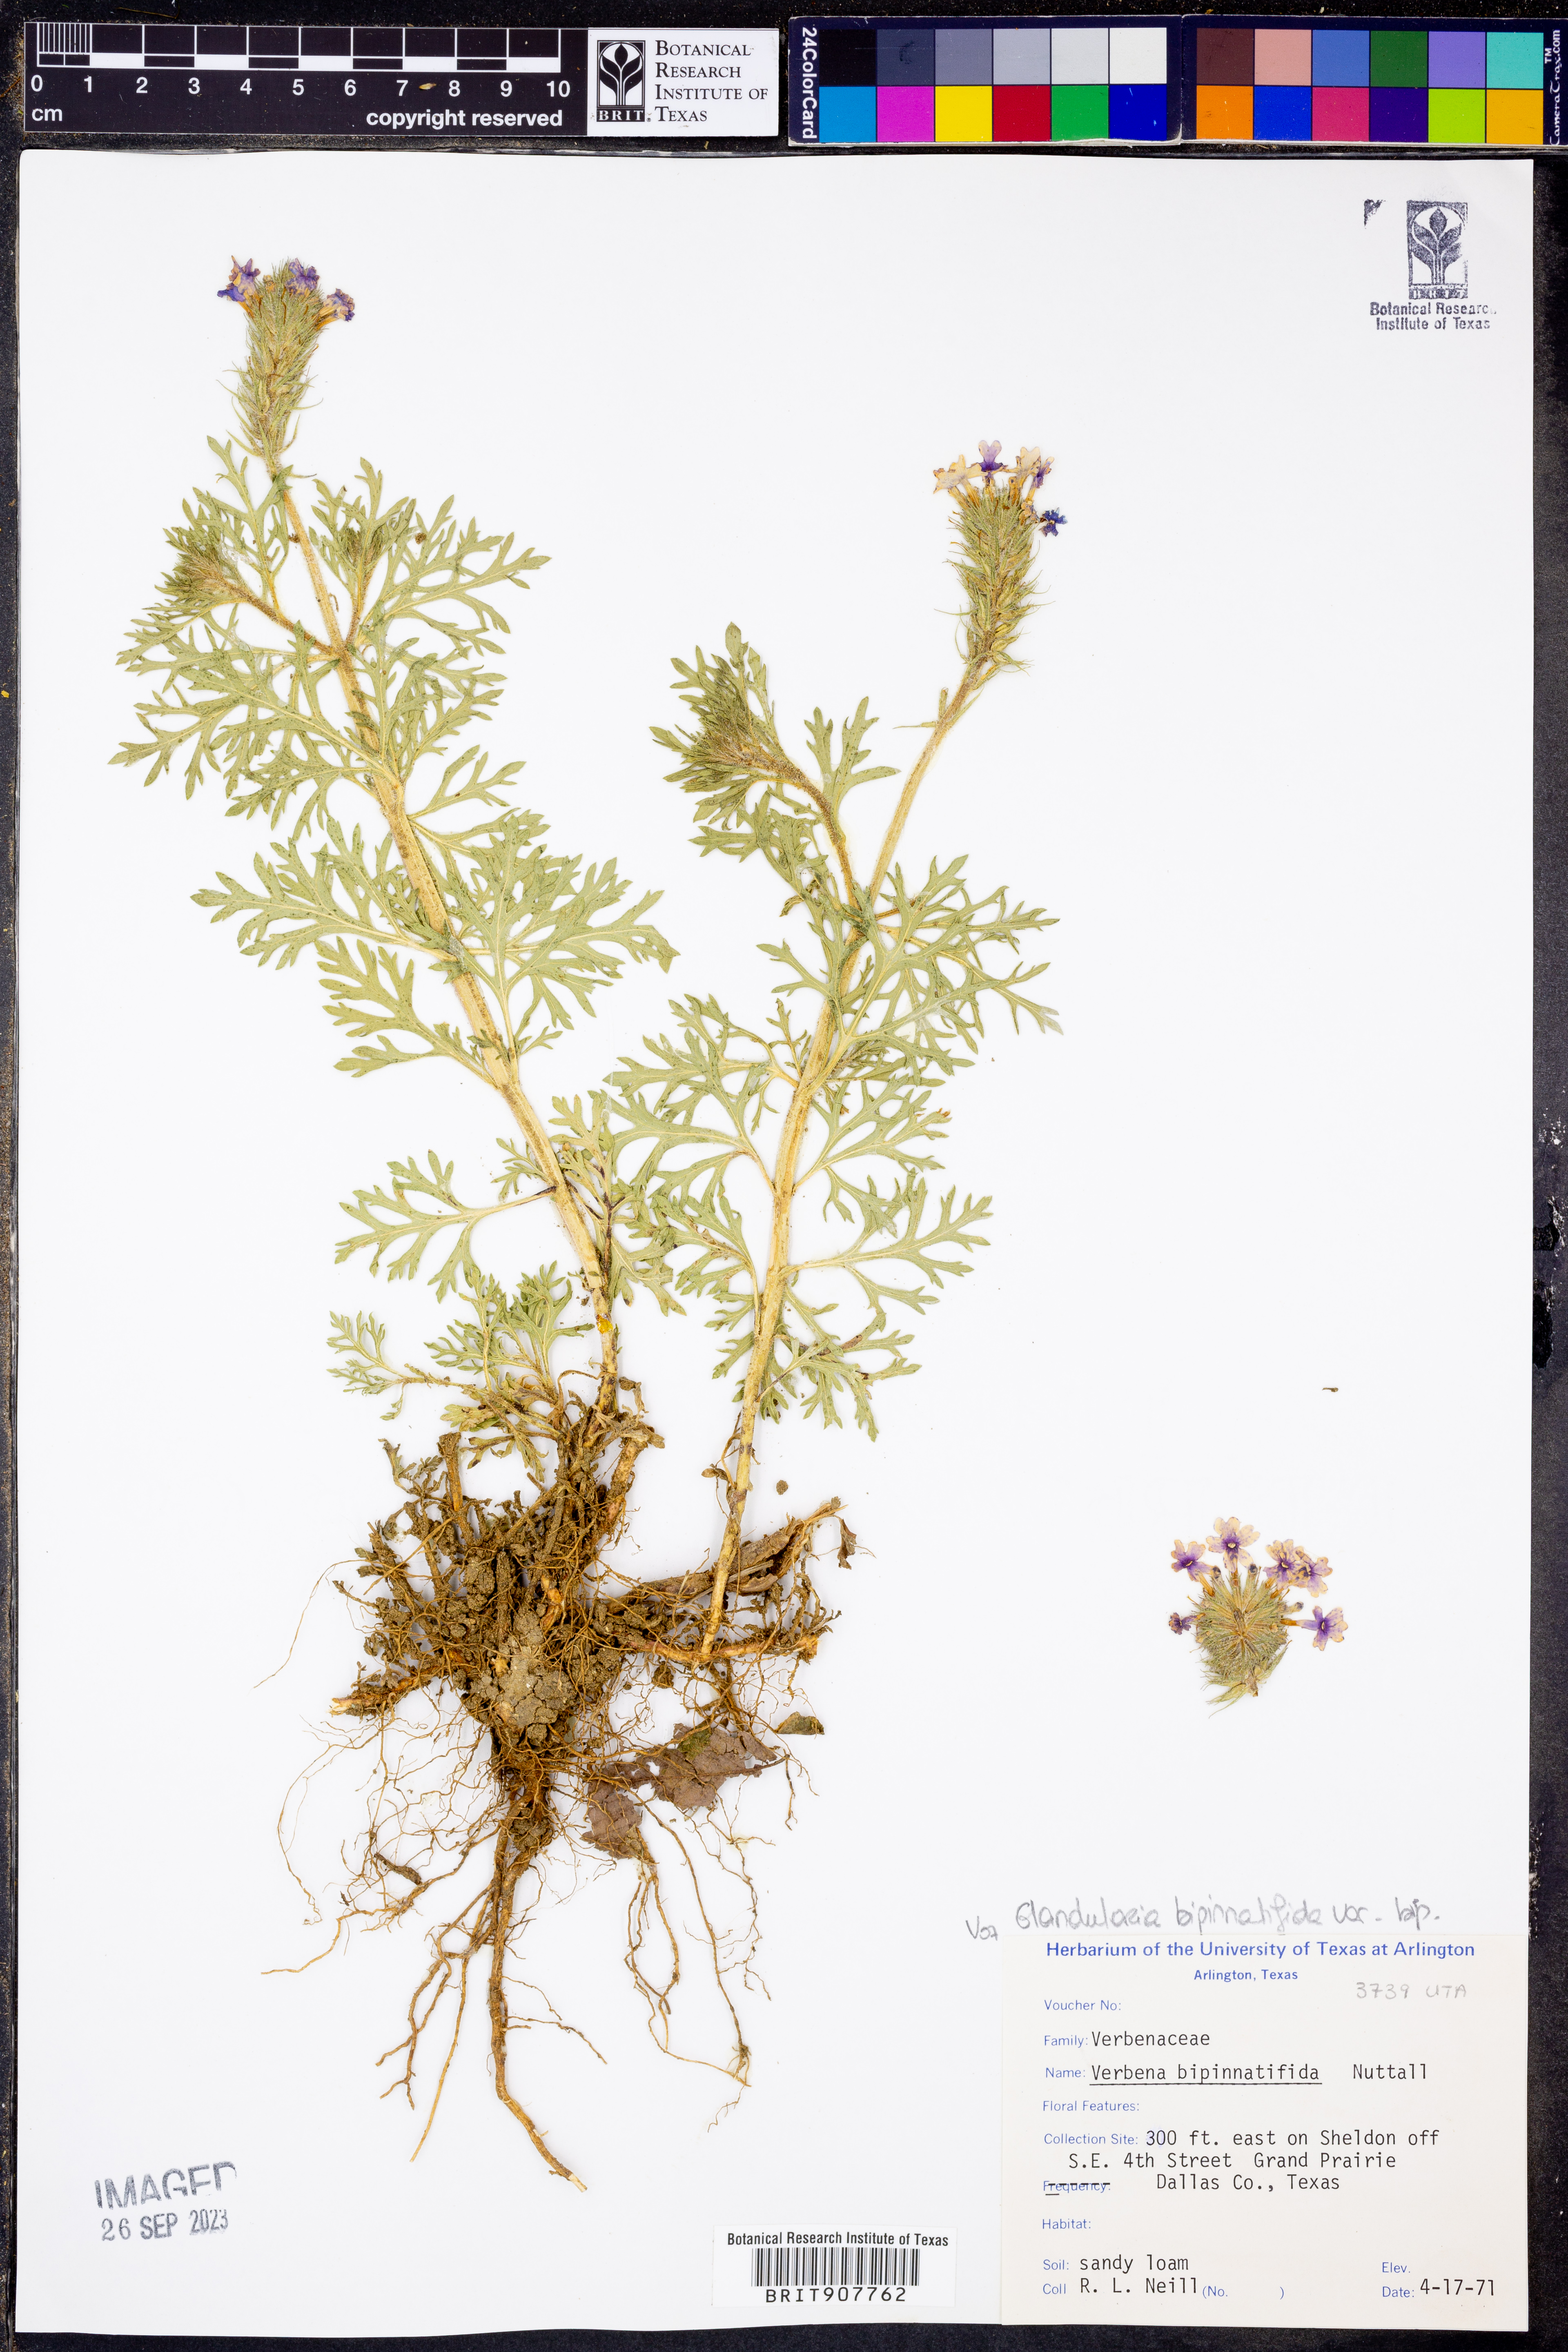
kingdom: Plantae
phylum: Tracheophyta
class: Magnoliopsida
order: Lamiales
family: Verbenaceae
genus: Verbena
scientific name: Verbena bipinnatifida
